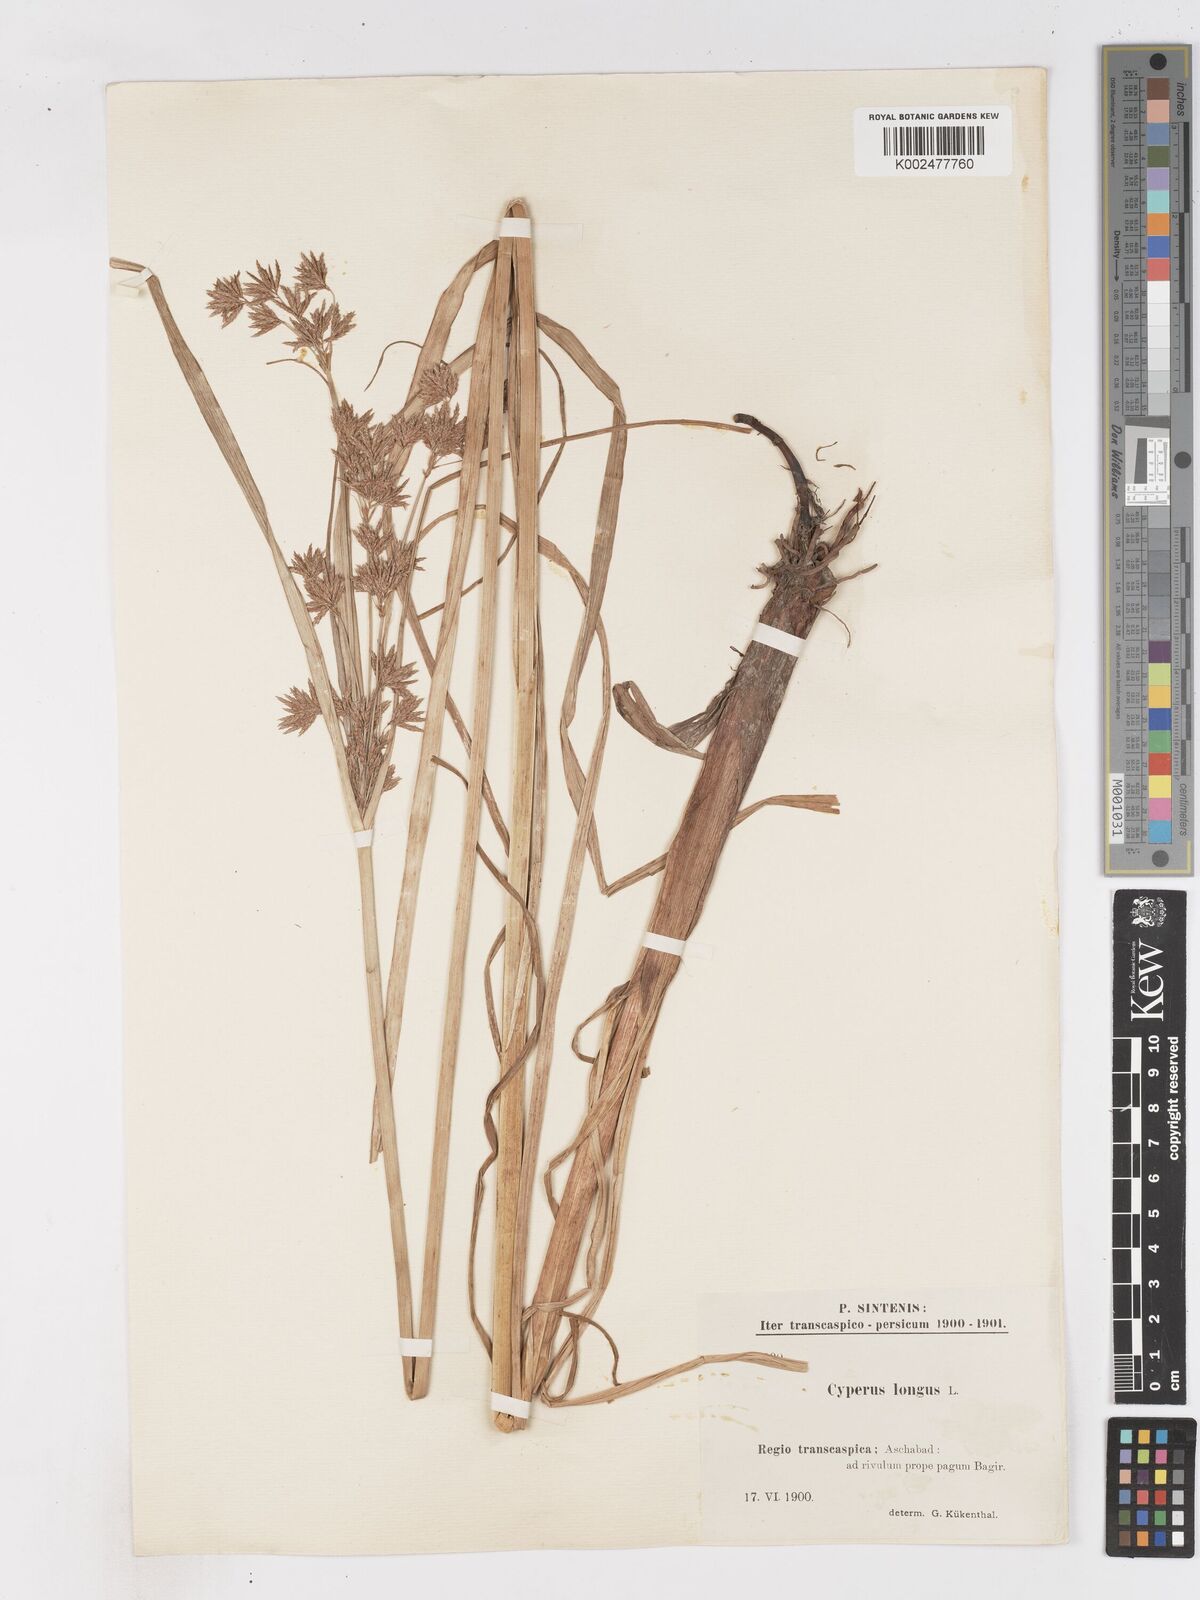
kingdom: Plantae
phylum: Tracheophyta
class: Liliopsida
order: Poales
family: Cyperaceae
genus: Cyperus
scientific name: Cyperus longus
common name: Galingale
